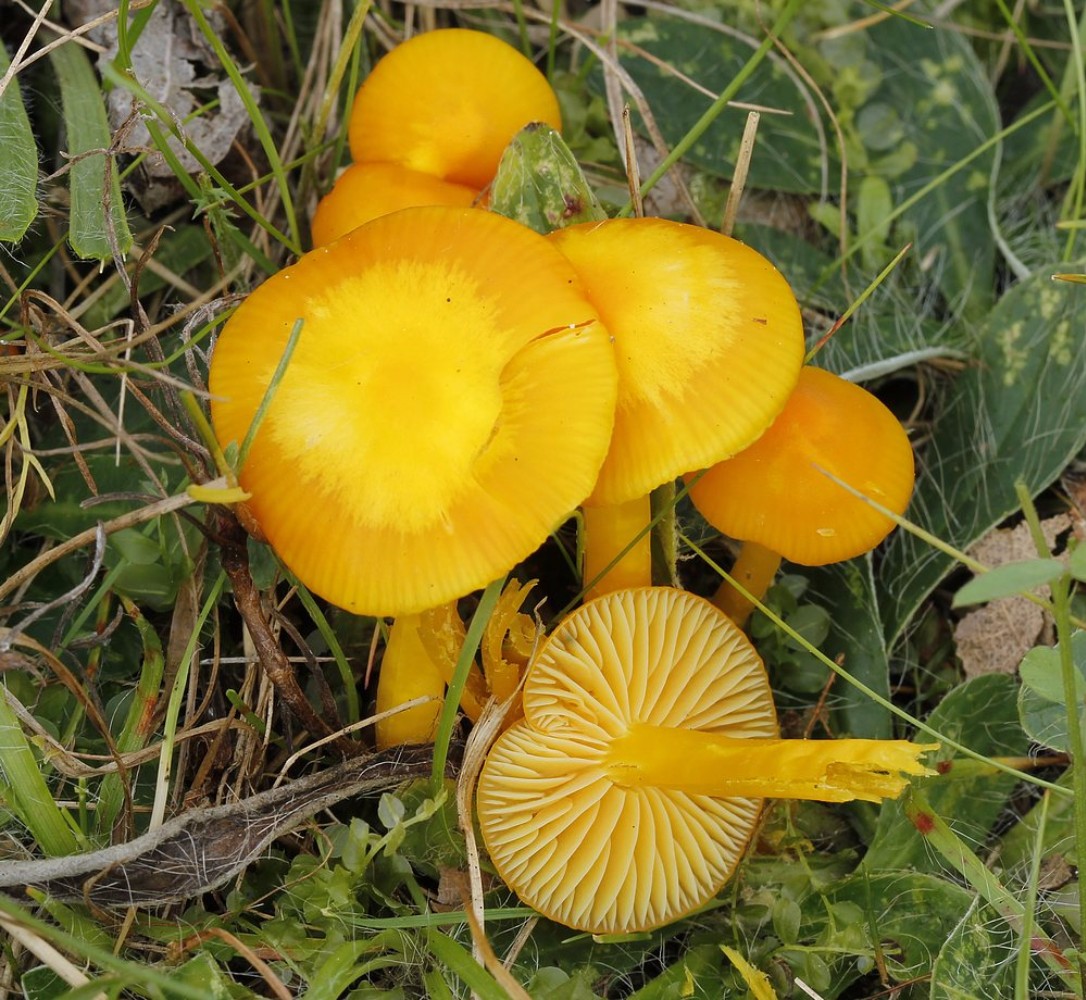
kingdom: Fungi
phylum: Basidiomycota
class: Agaricomycetes
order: Agaricales
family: Hygrophoraceae
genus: Hygrocybe
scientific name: Hygrocybe ceracea
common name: voksgul vokshat
